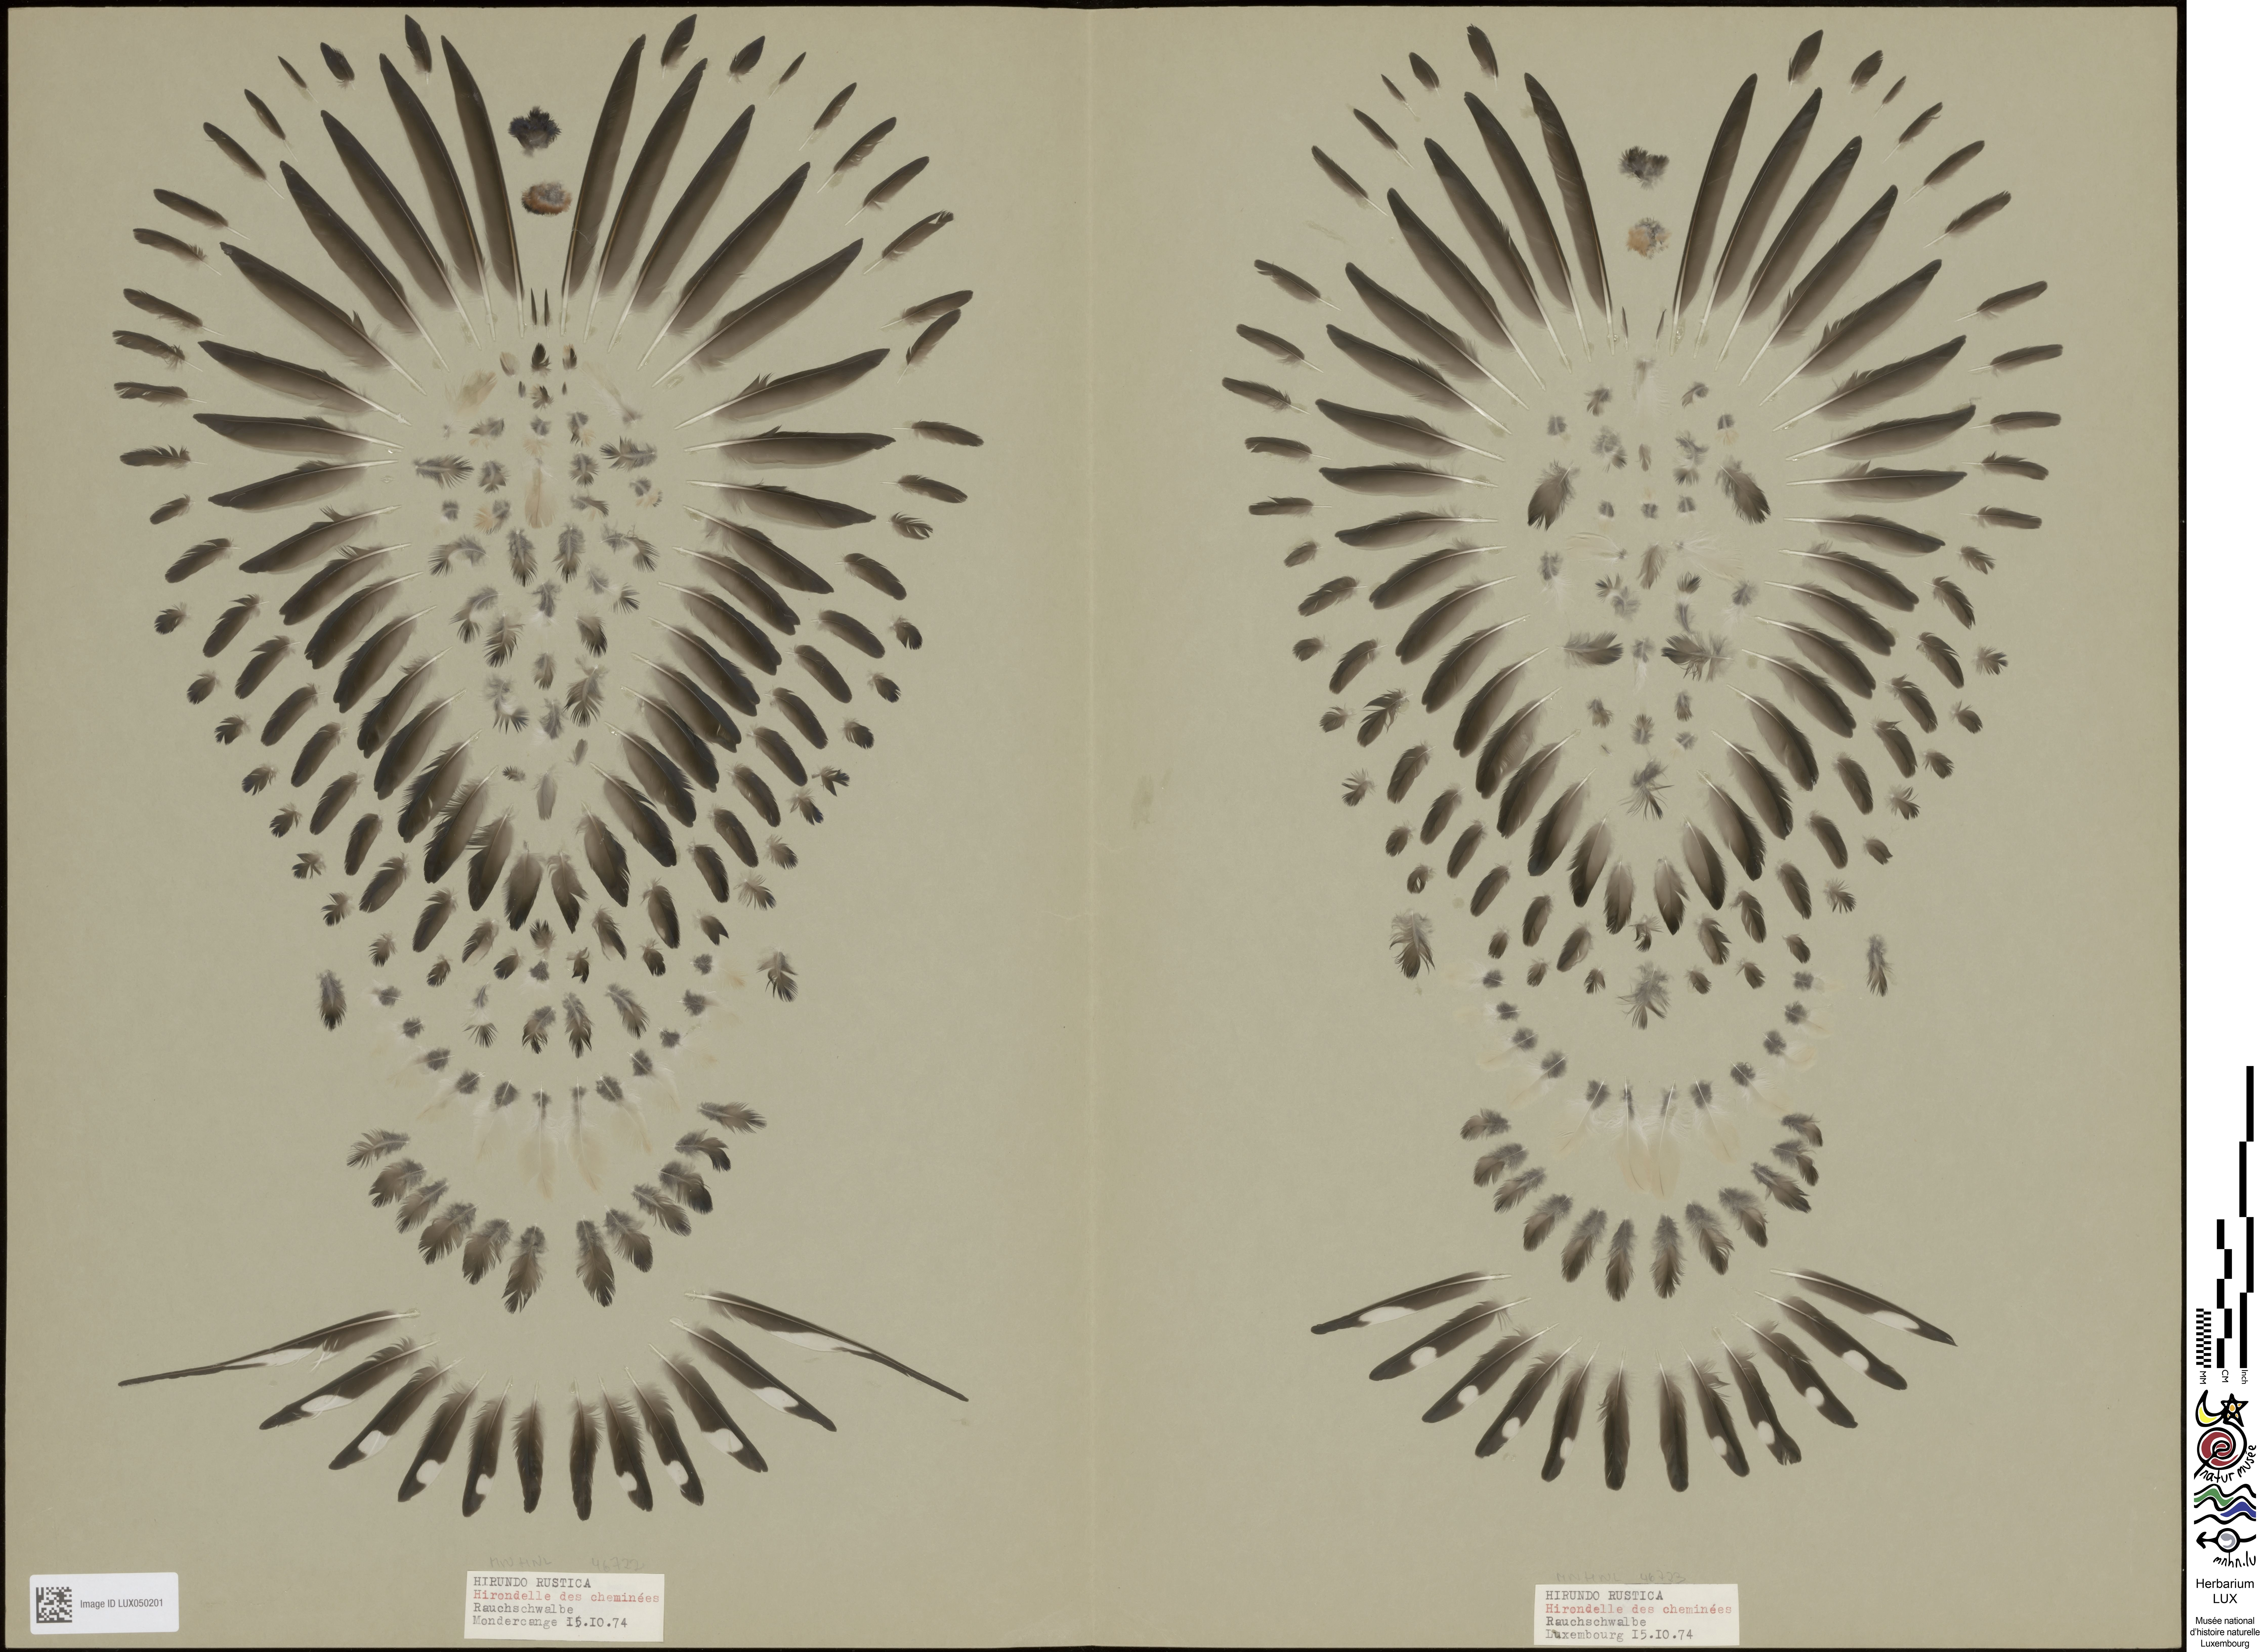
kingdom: Animalia
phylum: Chordata
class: Aves
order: Passeriformes
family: Hirundinidae
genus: Hirundo
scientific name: Hirundo rustica
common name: Barn swallow
